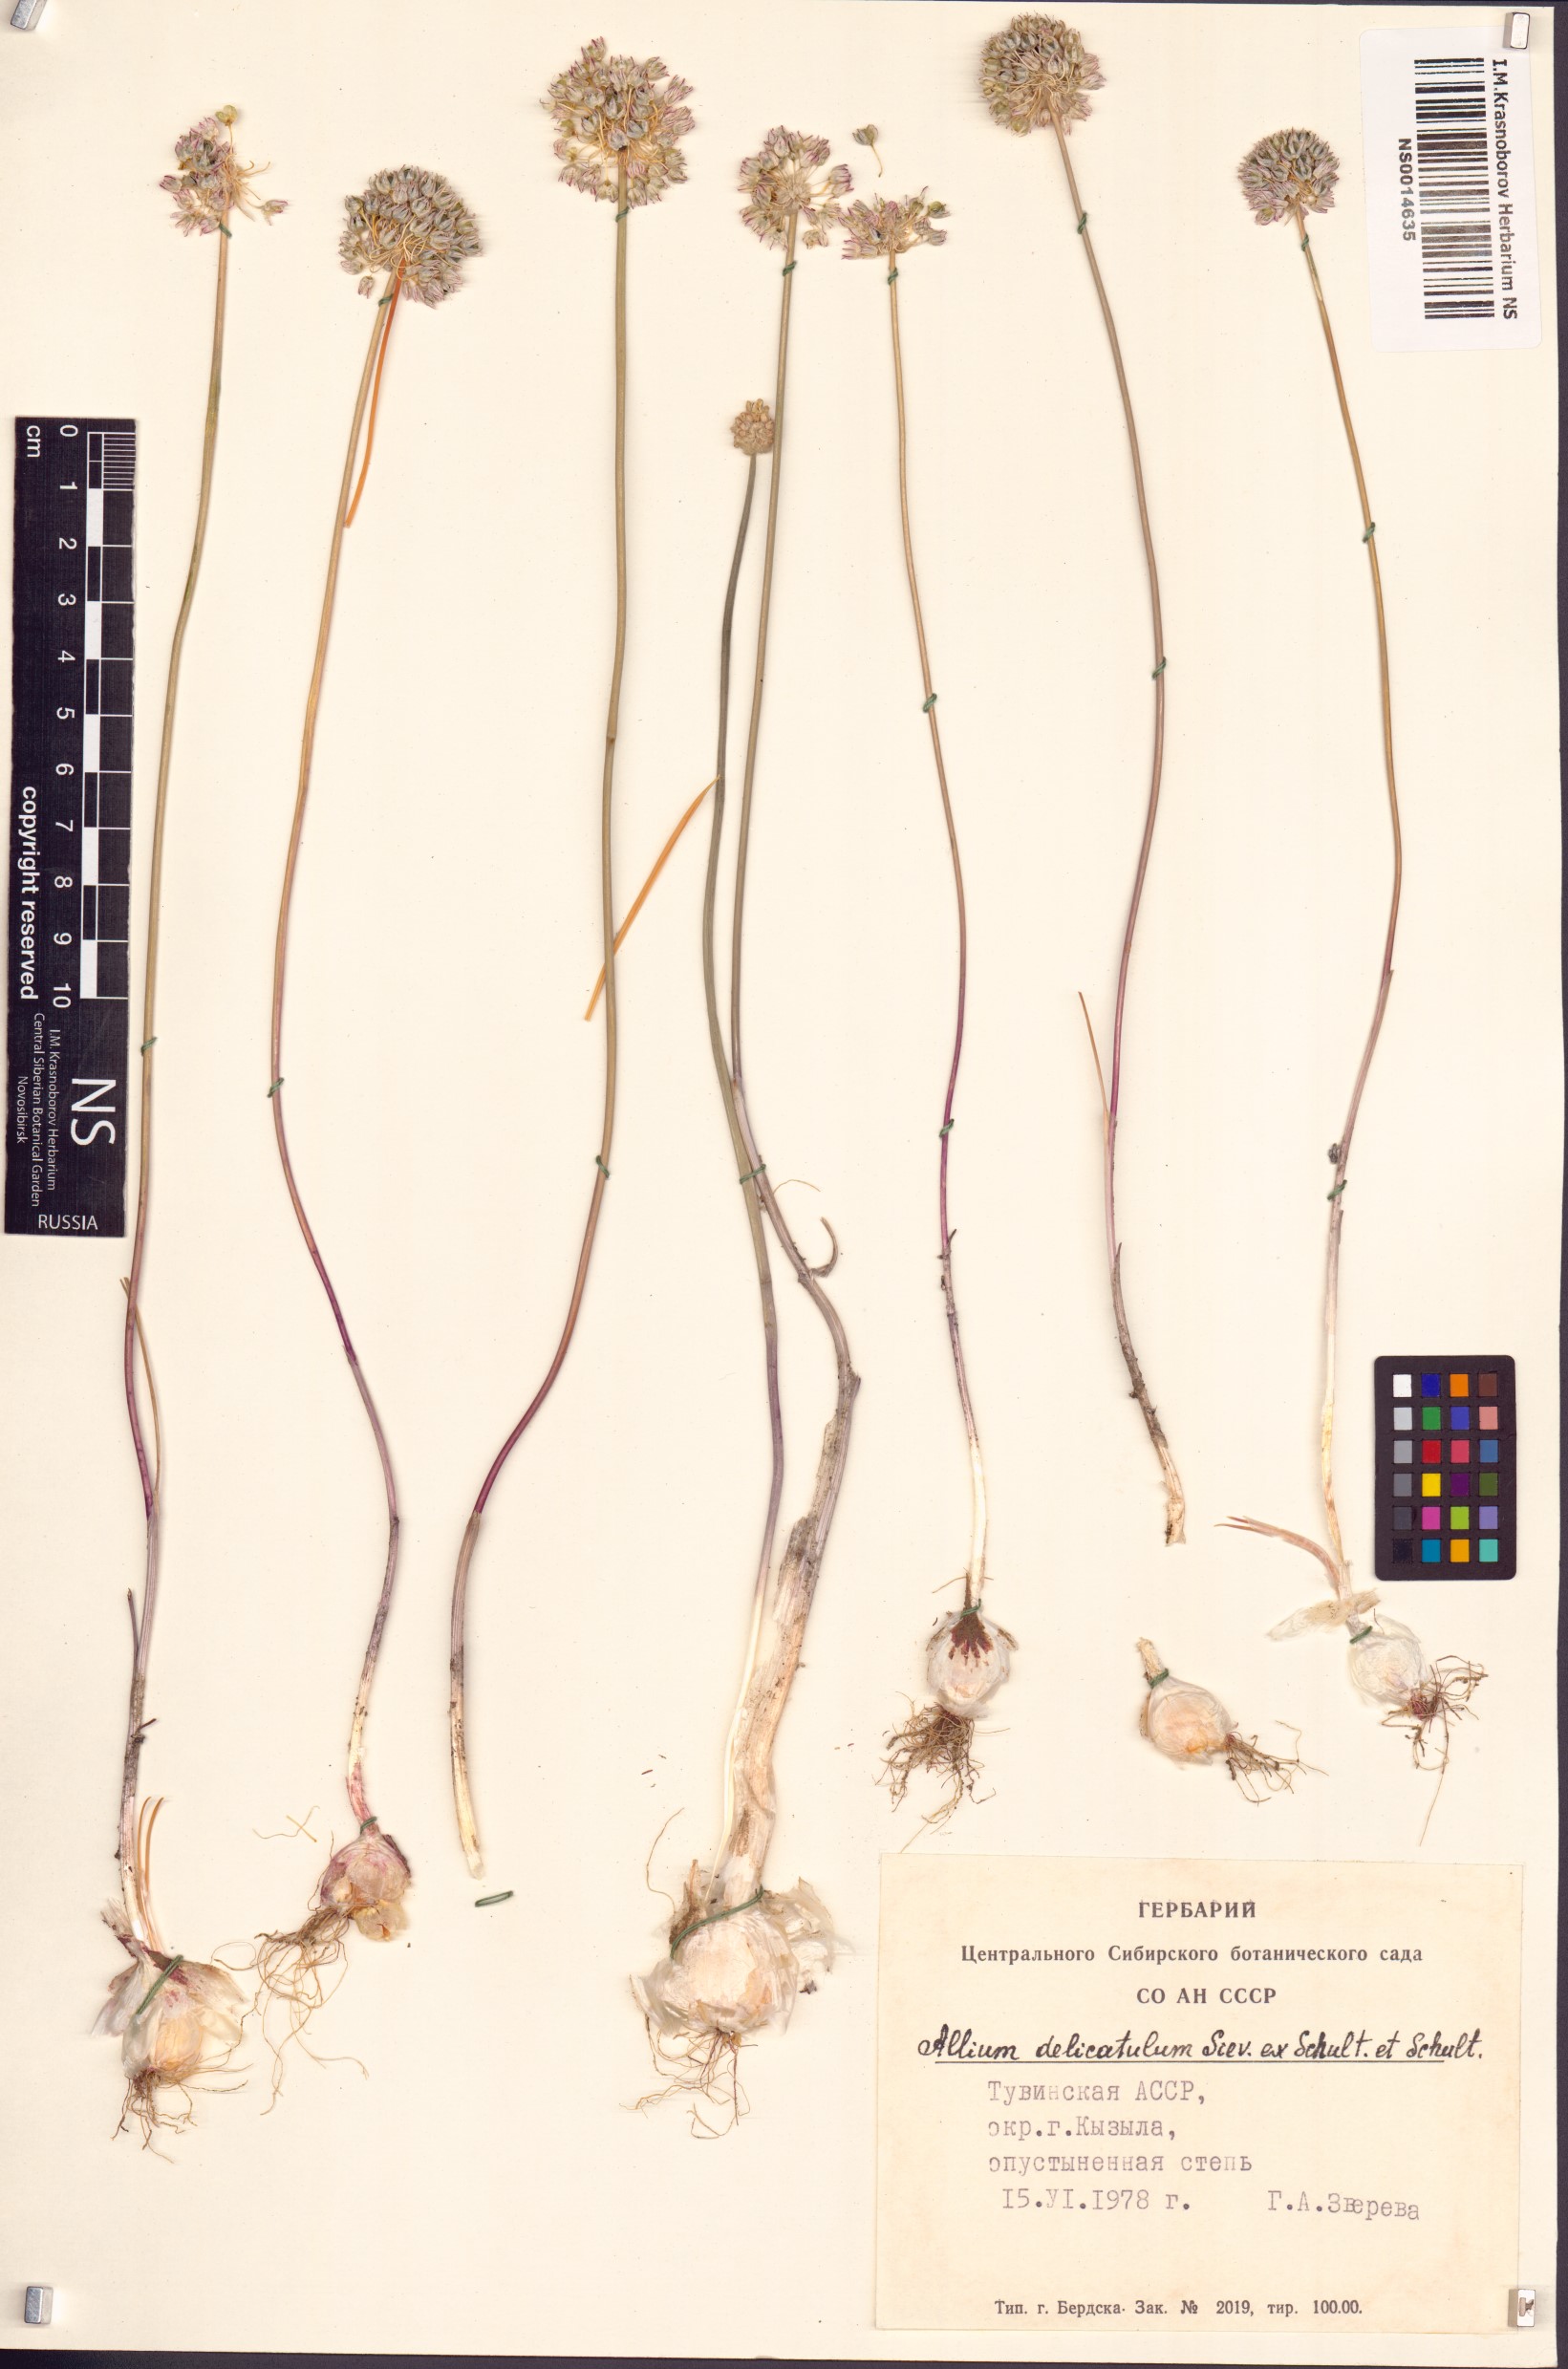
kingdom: Plantae
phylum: Tracheophyta
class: Liliopsida
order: Asparagales
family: Amaryllidaceae
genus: Allium
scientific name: Allium delicatulum
